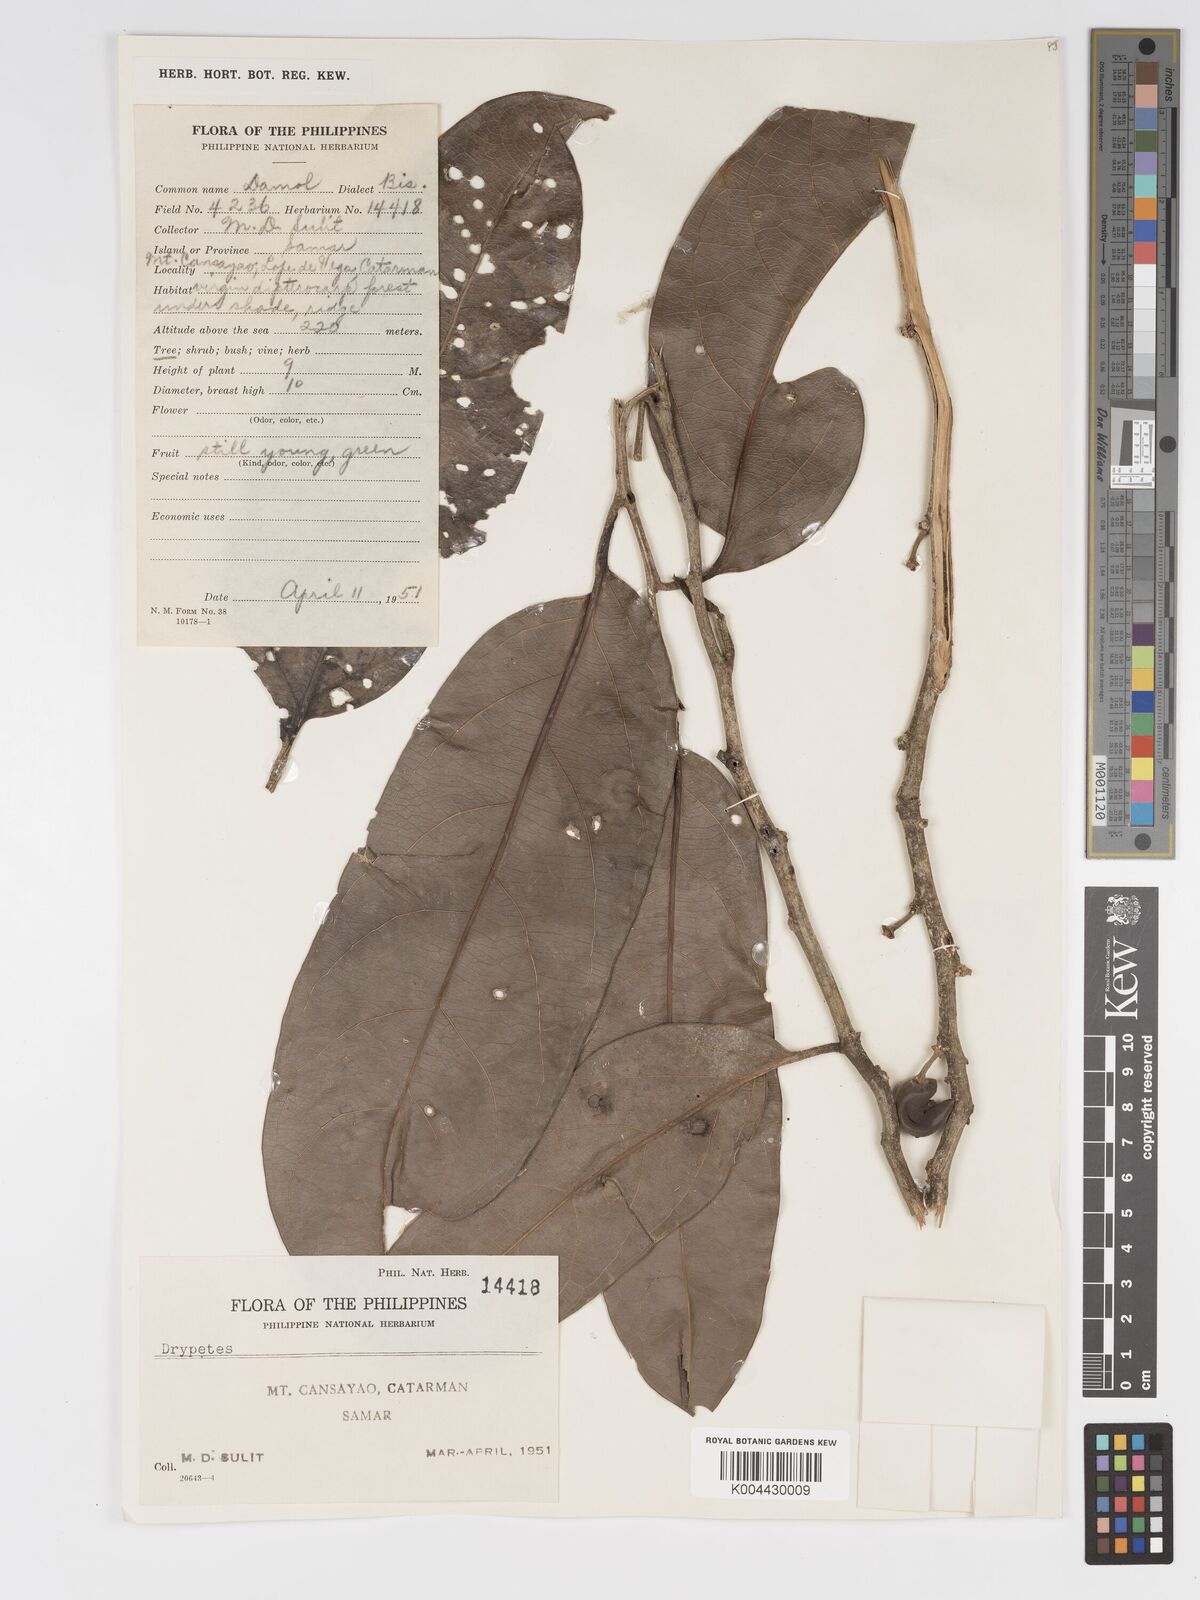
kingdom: Plantae
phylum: Tracheophyta
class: Magnoliopsida
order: Malpighiales
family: Putranjivaceae
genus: Drypetes
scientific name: Drypetes longifolia
